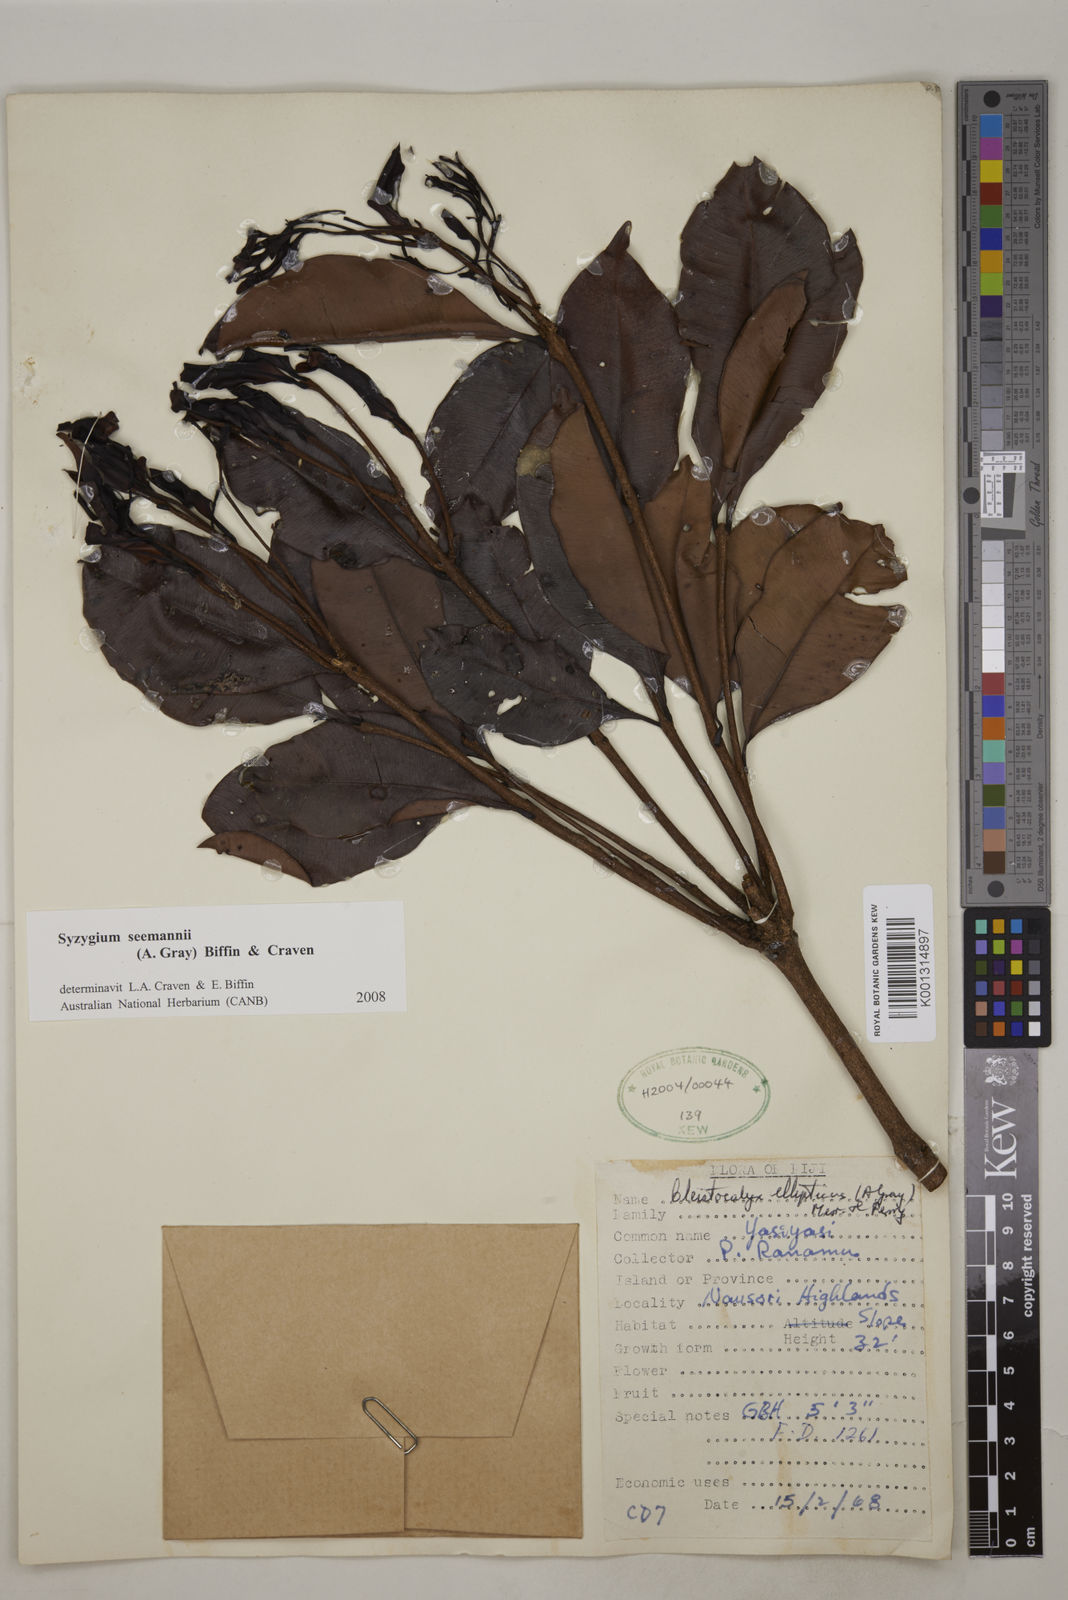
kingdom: Plantae
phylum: Tracheophyta
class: Magnoliopsida
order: Myrtales
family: Myrtaceae
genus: Syzygium
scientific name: Syzygium seemannii
